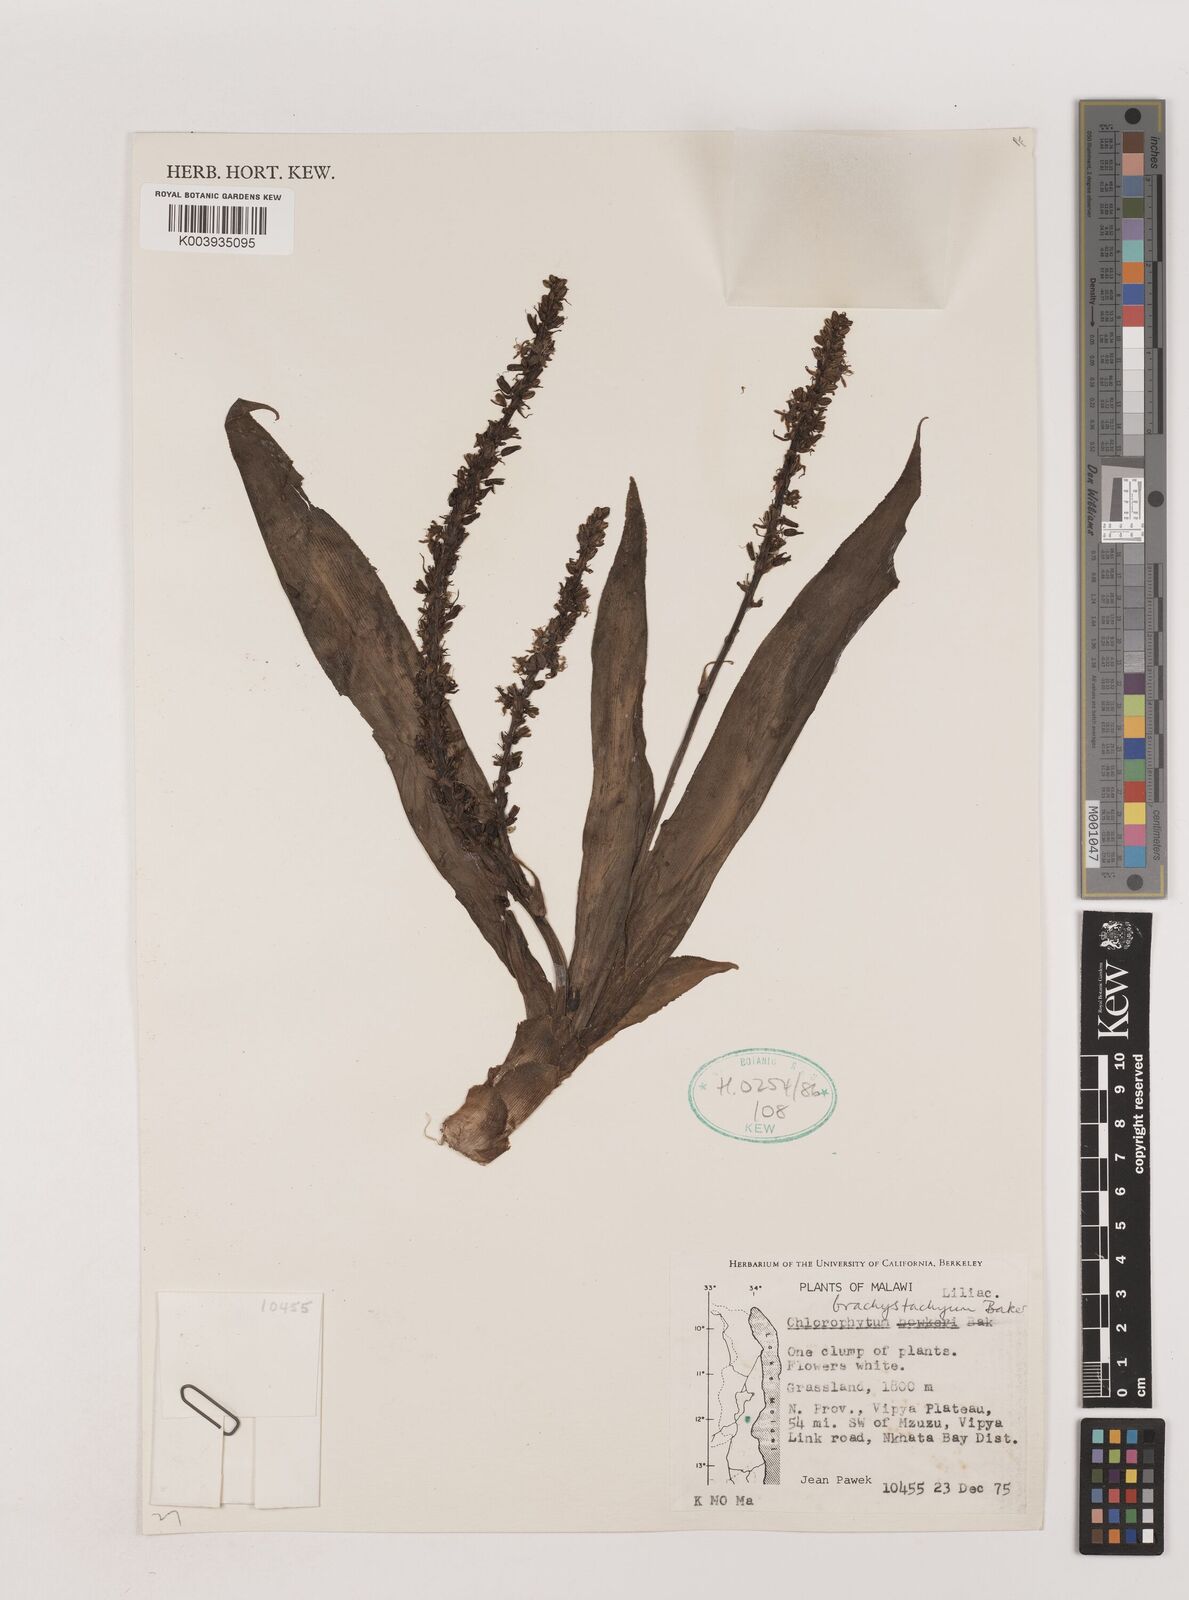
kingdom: Plantae
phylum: Tracheophyta
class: Liliopsida
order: Asparagales
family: Asparagaceae
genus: Chlorophytum
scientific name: Chlorophytum brachystachyum
